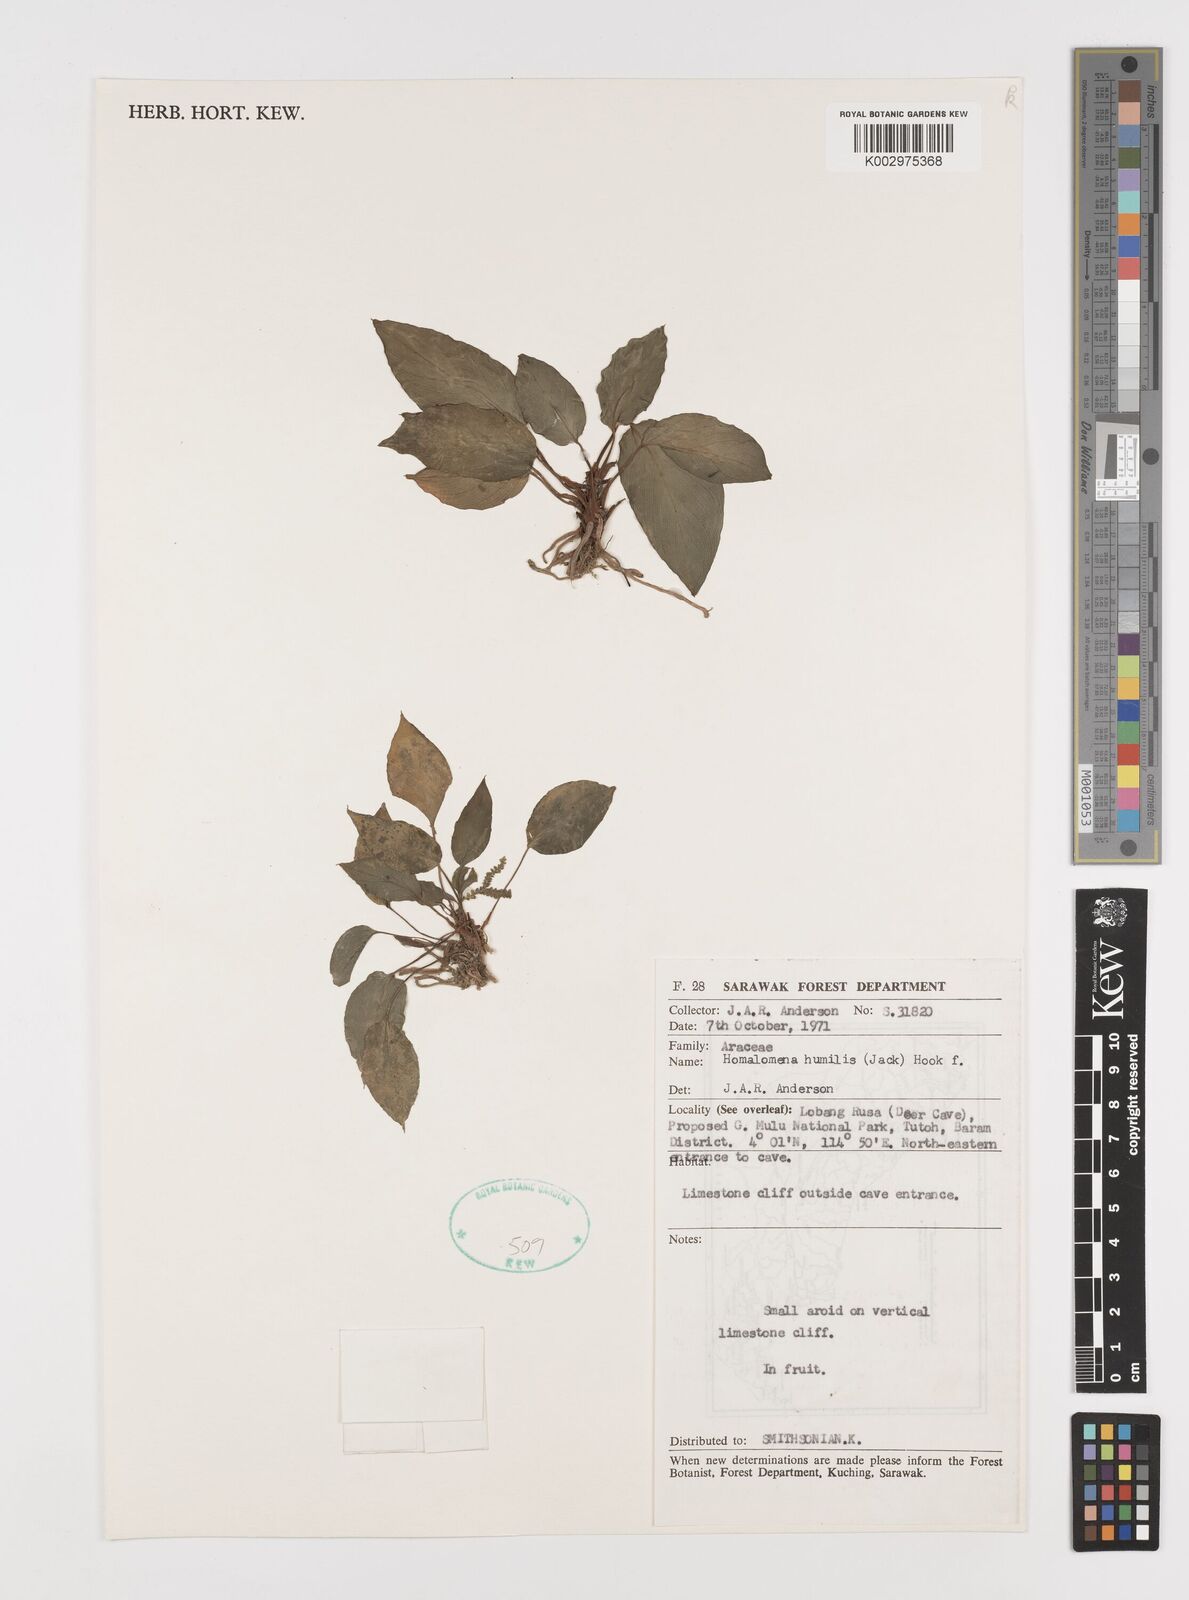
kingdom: Plantae
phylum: Tracheophyta
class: Liliopsida
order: Alismatales
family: Araceae
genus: Homalomena
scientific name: Homalomena humilis
